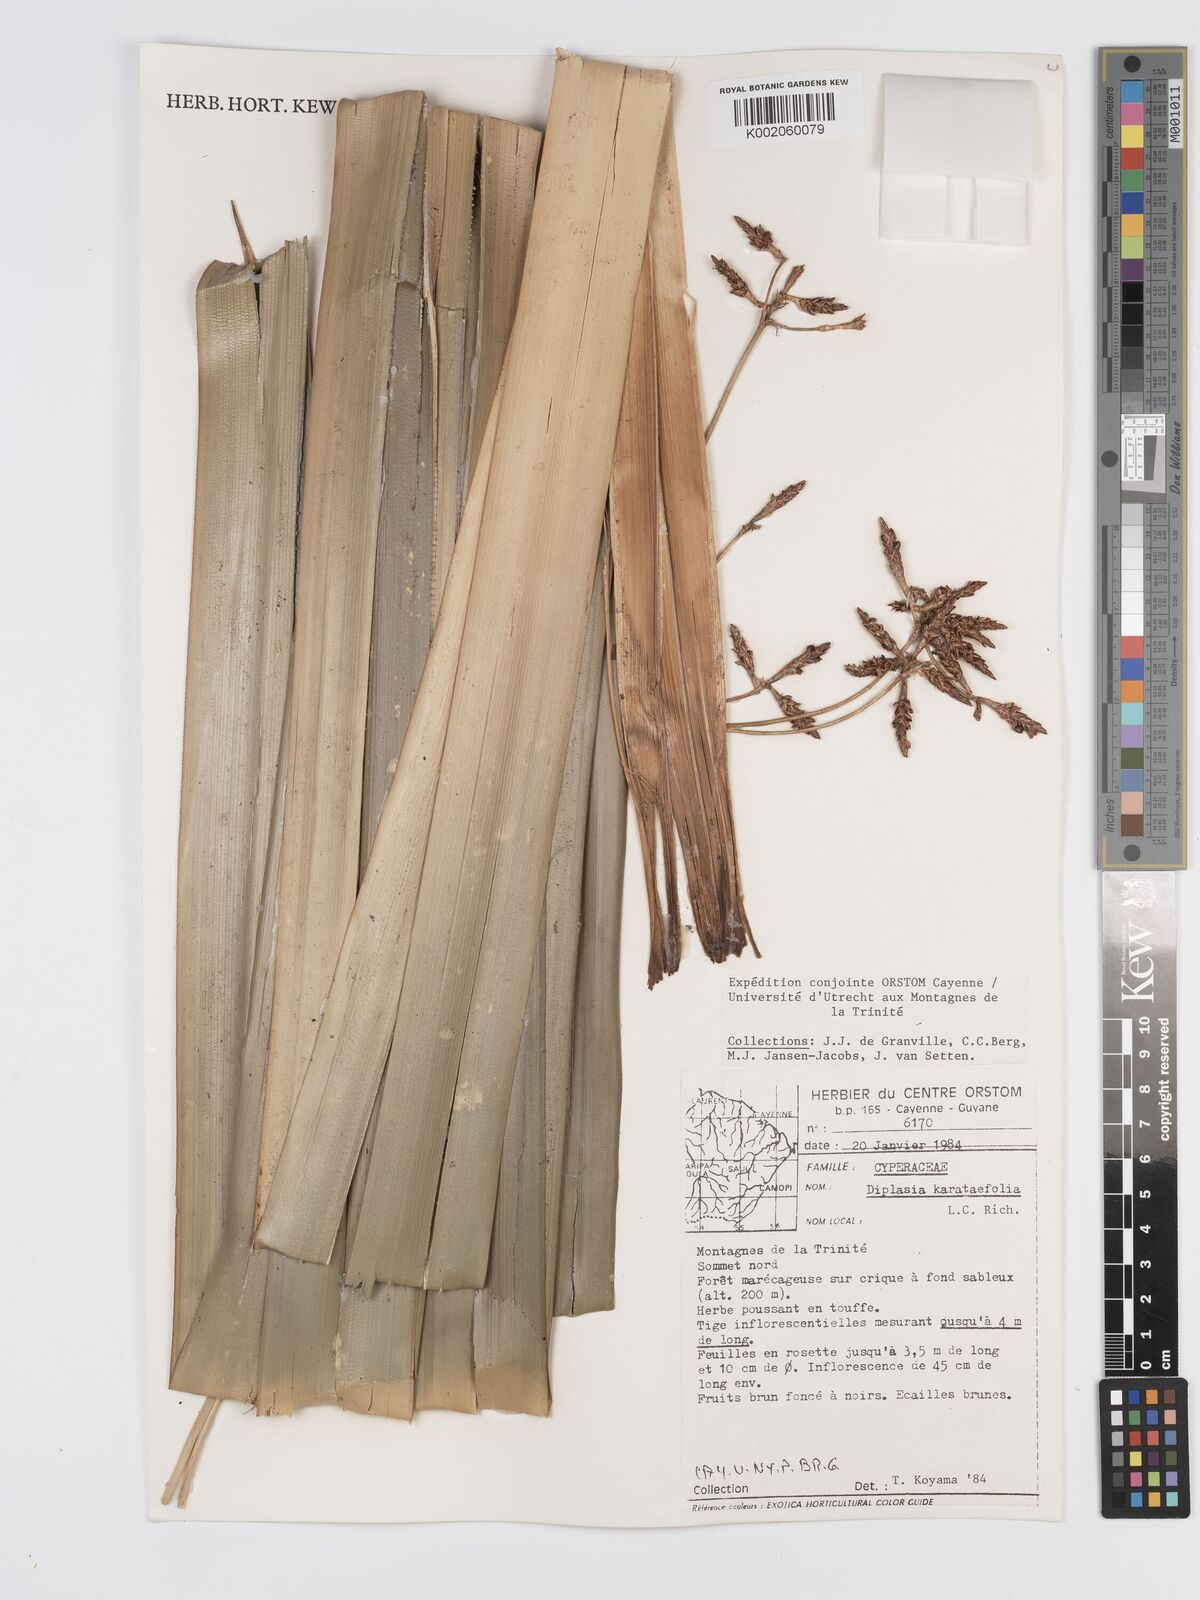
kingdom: Plantae
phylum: Tracheophyta
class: Liliopsida
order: Poales
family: Cyperaceae
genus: Diplasia
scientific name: Diplasia karatifolia
